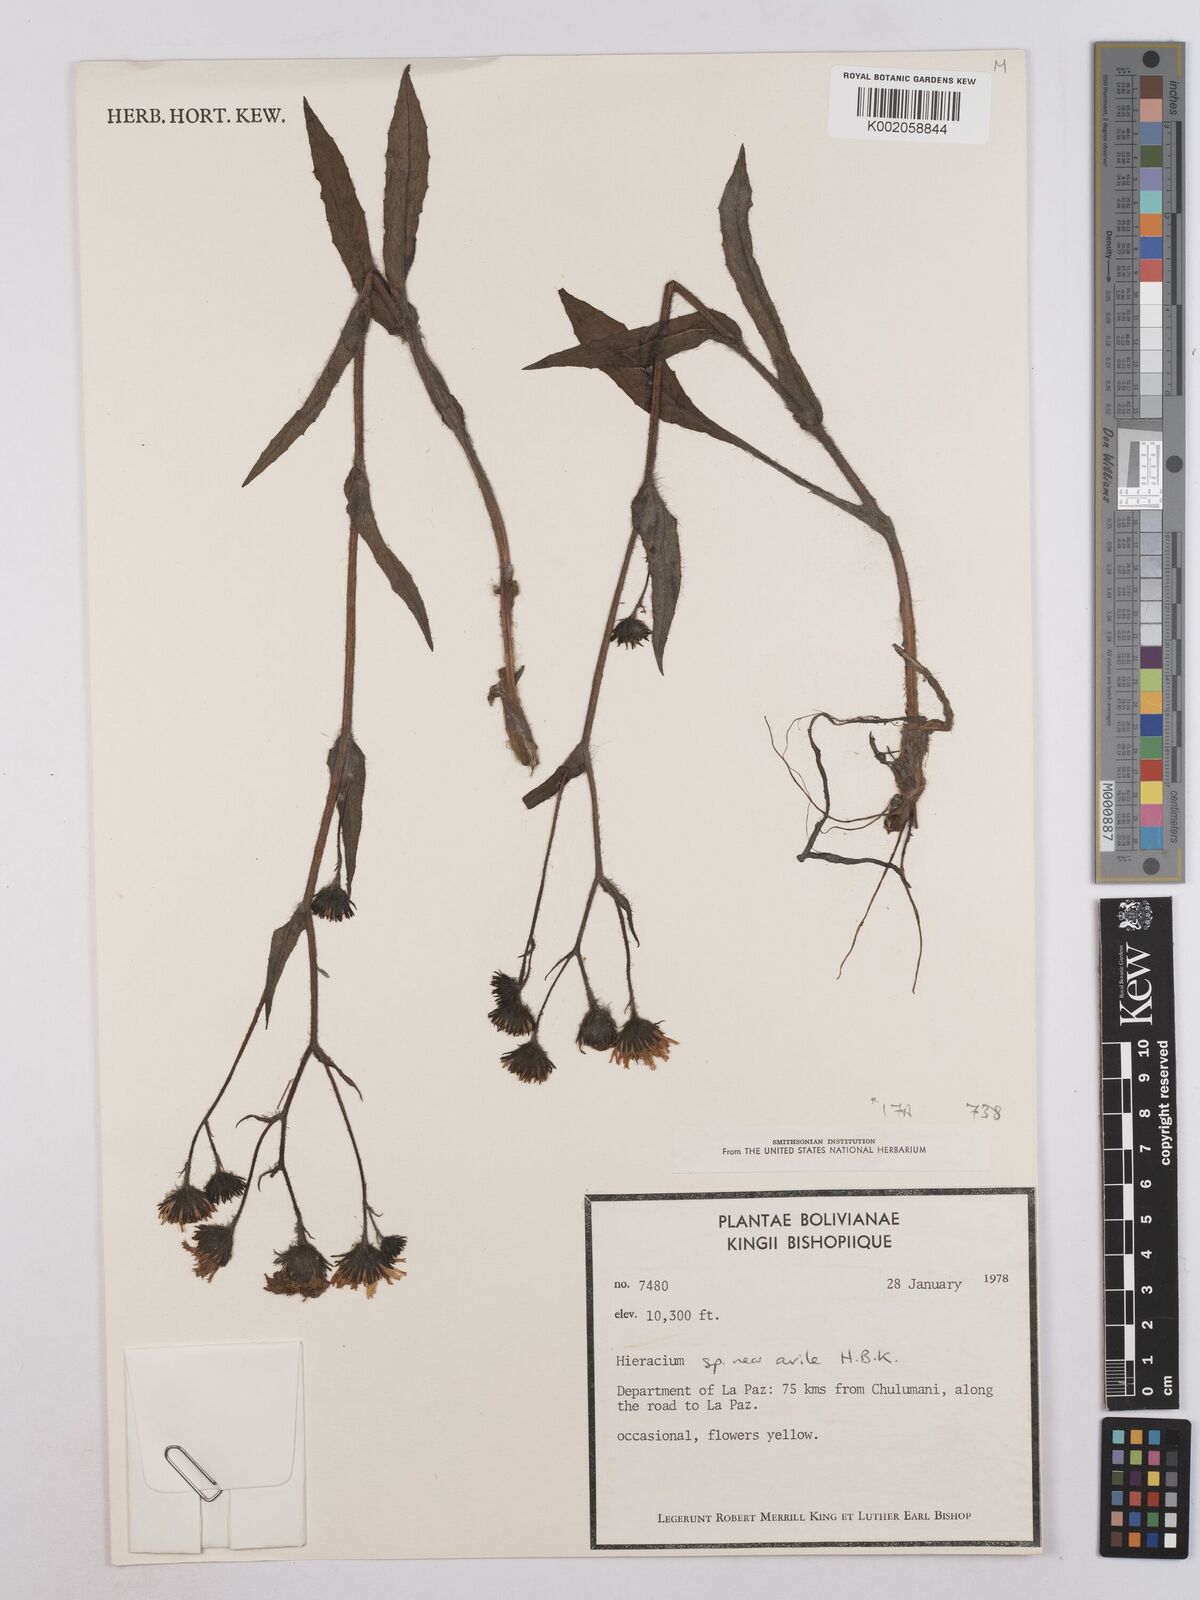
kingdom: Plantae
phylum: Tracheophyta
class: Magnoliopsida
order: Asterales
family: Asteraceae
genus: Hieracium
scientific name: Hieracium avilae
